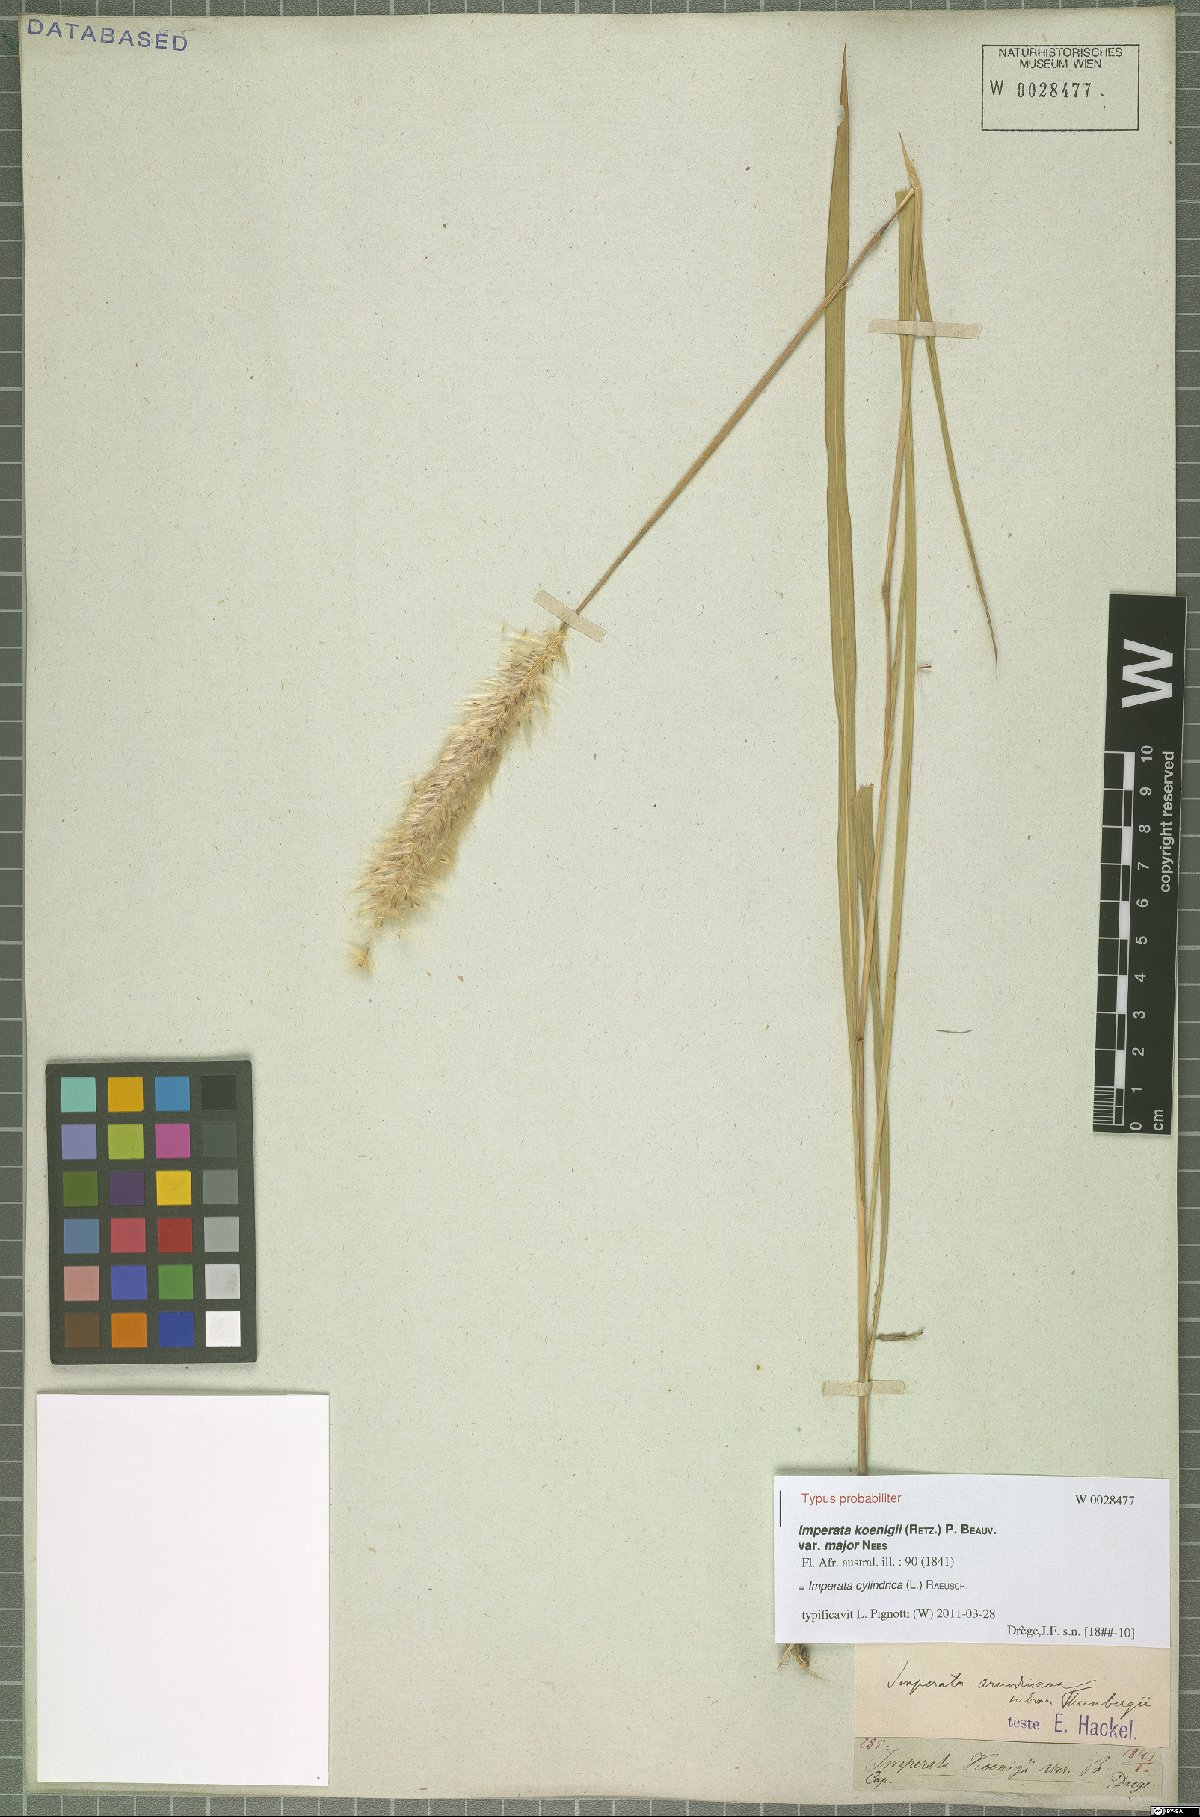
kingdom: Plantae
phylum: Tracheophyta
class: Liliopsida
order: Poales
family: Poaceae
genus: Imperata
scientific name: Imperata cylindrica
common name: Cogongrass
